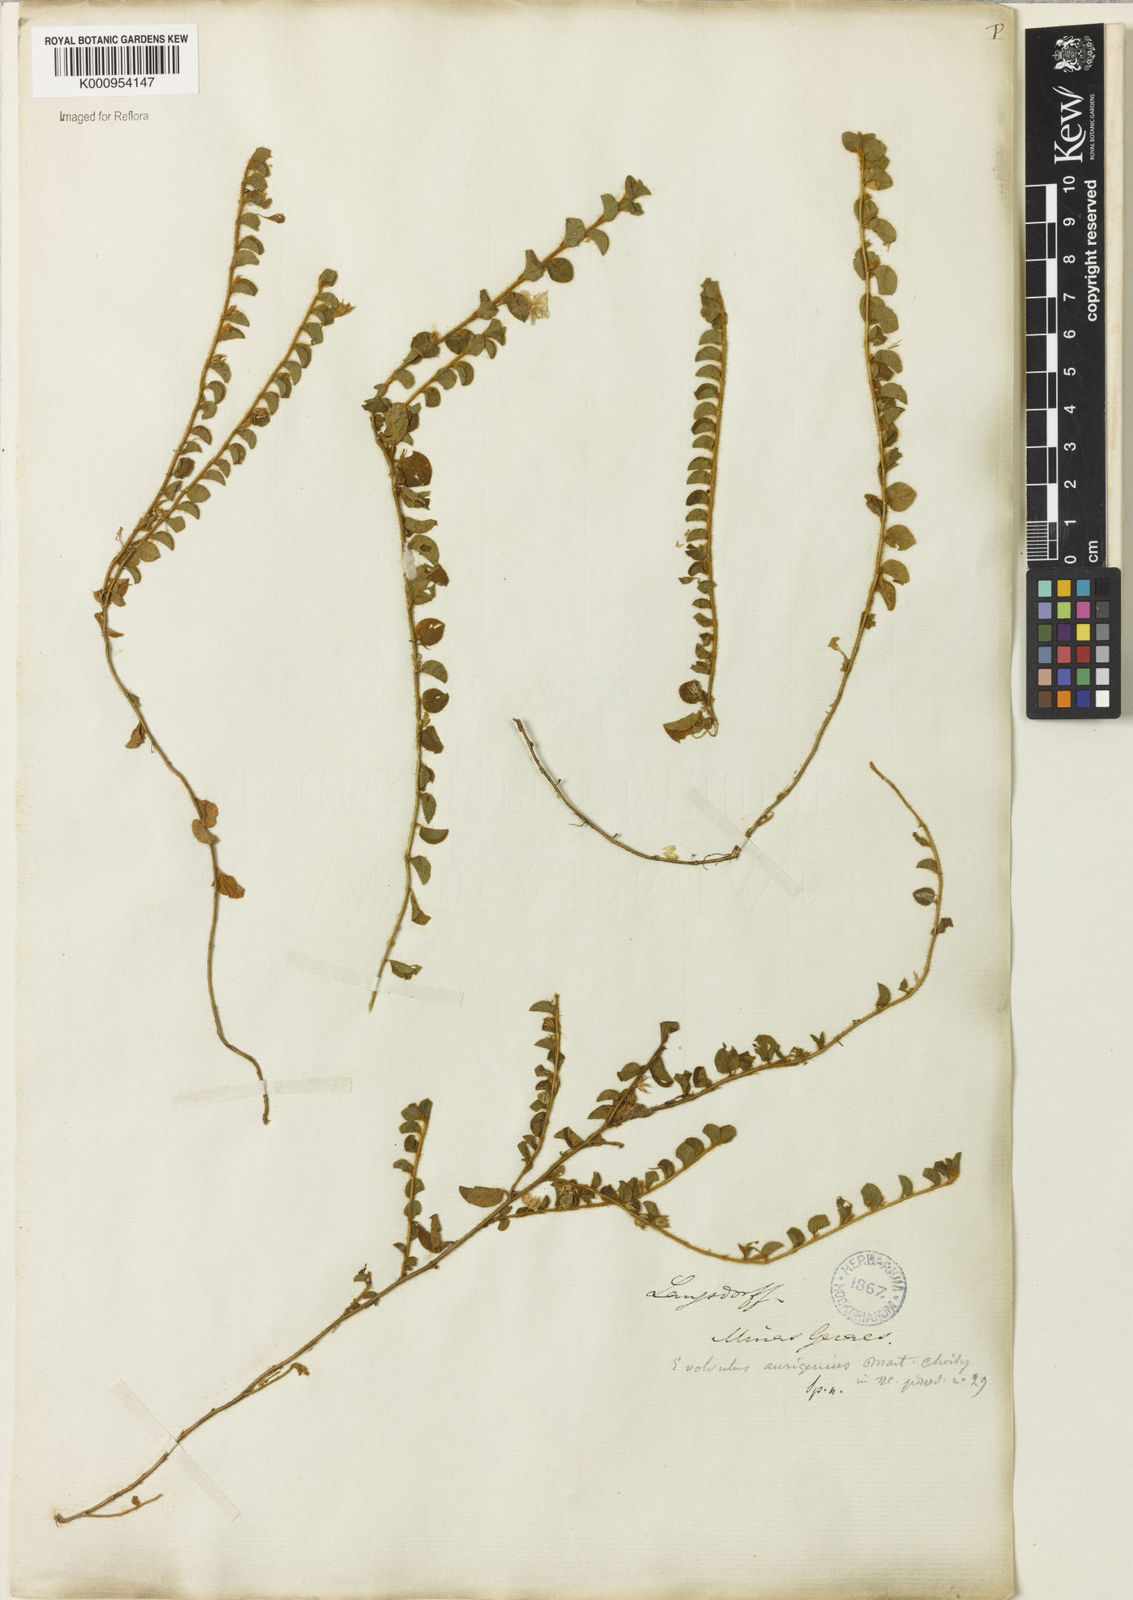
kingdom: Plantae
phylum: Tracheophyta
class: Magnoliopsida
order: Solanales
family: Convolvulaceae
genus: Evolvulus
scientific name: Evolvulus aurigenius
